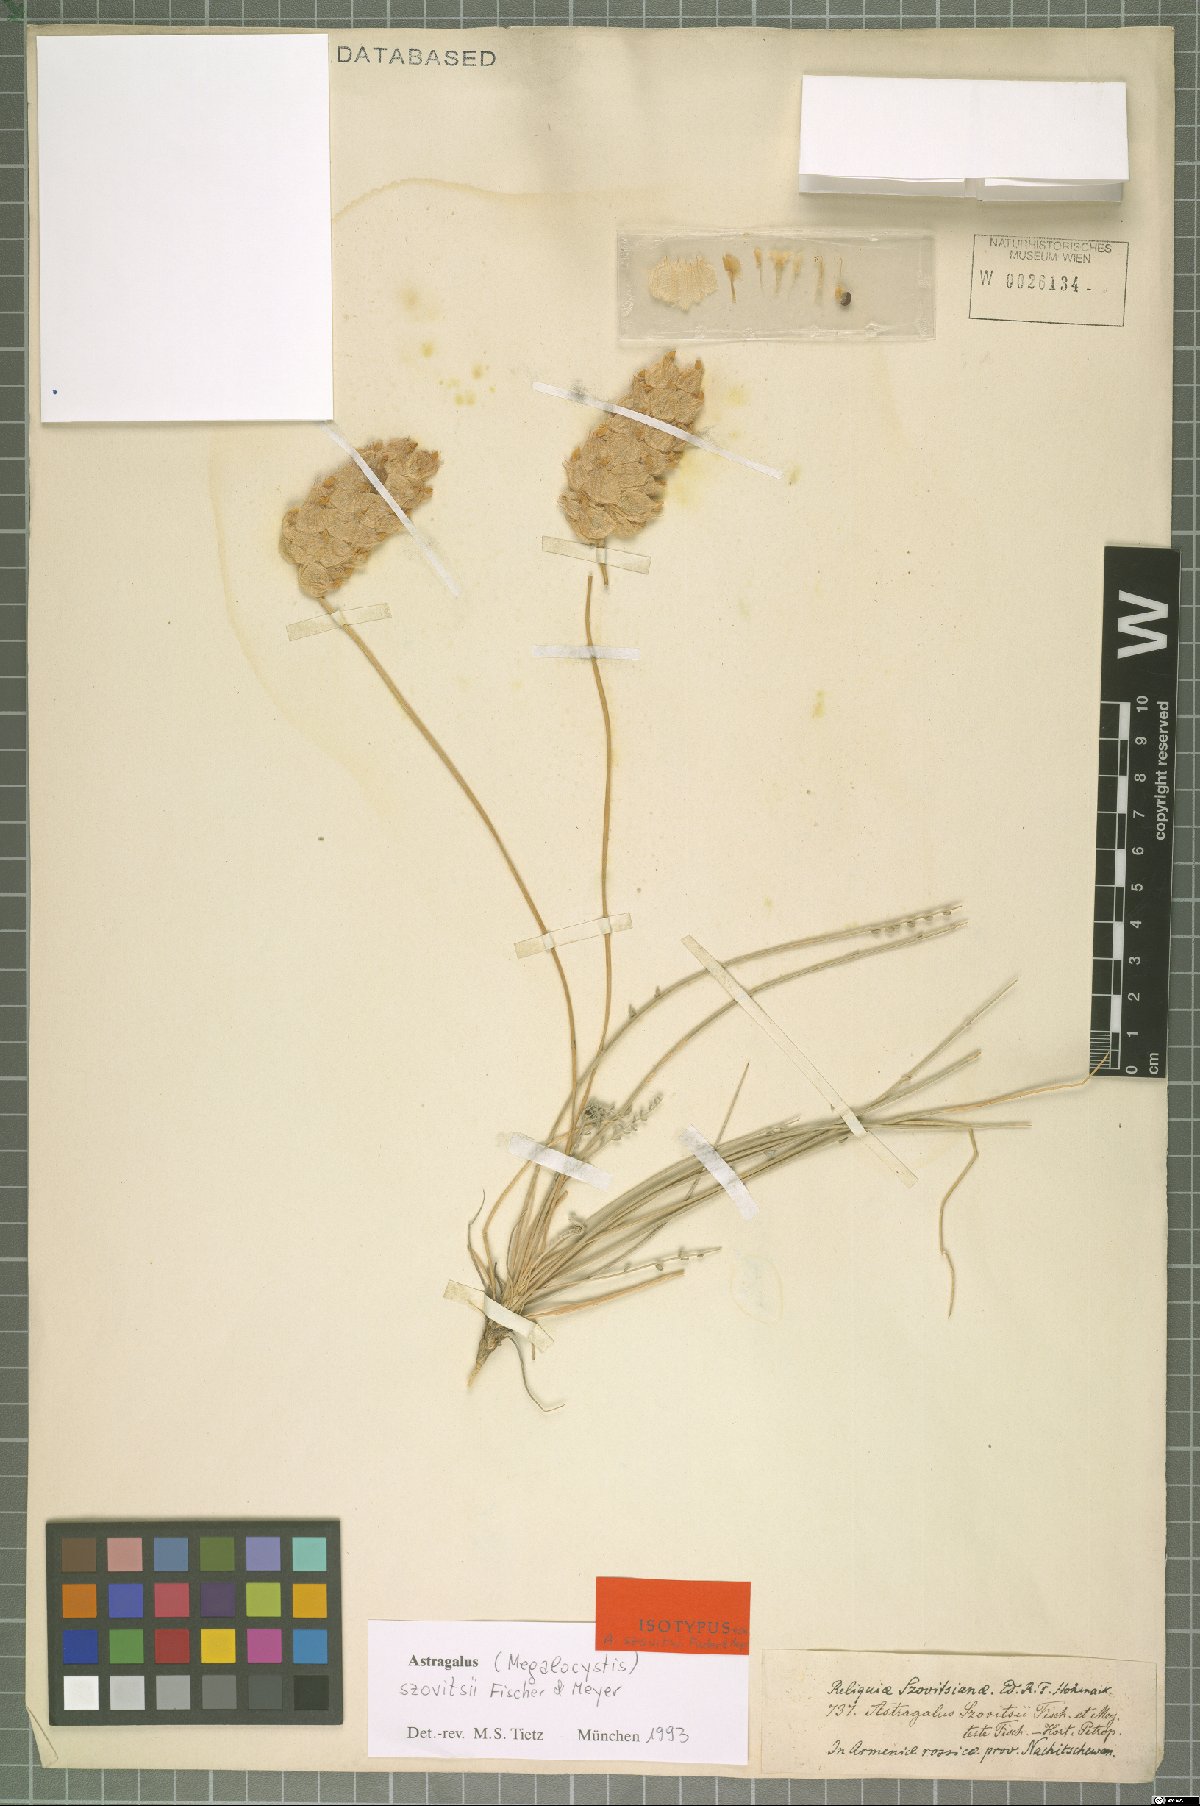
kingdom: Plantae
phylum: Tracheophyta
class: Magnoliopsida
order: Fabales
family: Fabaceae
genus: Astragalus
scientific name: Astragalus szovitsii
